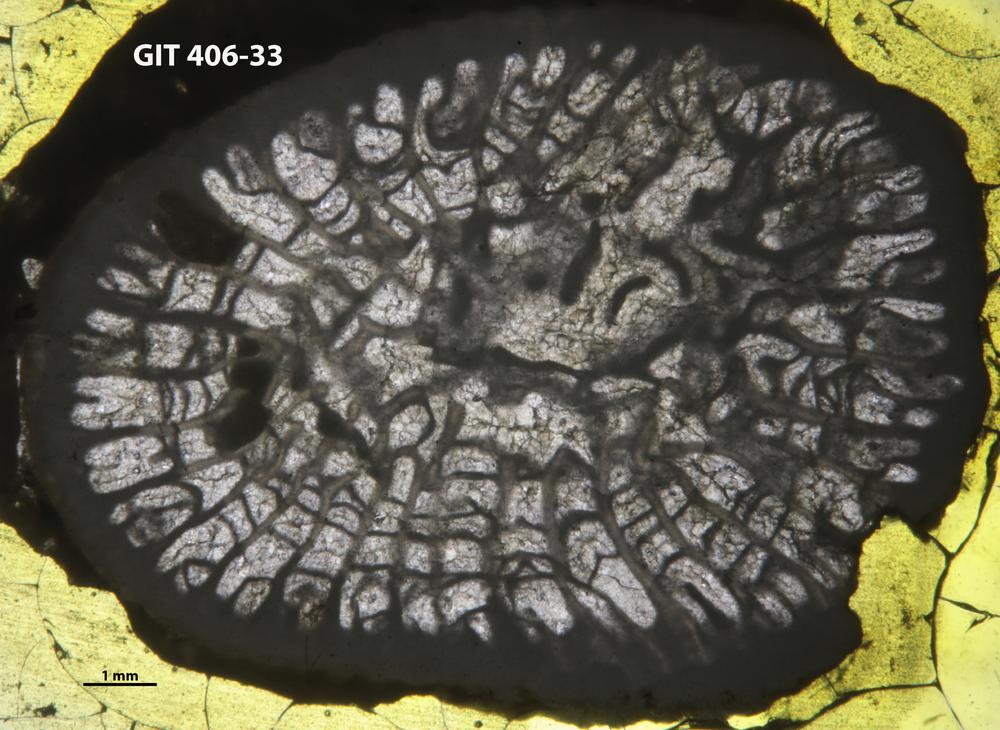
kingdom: Animalia
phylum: Cnidaria
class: Anthozoa
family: Streptelasmatidae
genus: Brachyelasma
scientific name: Brachyelasma
